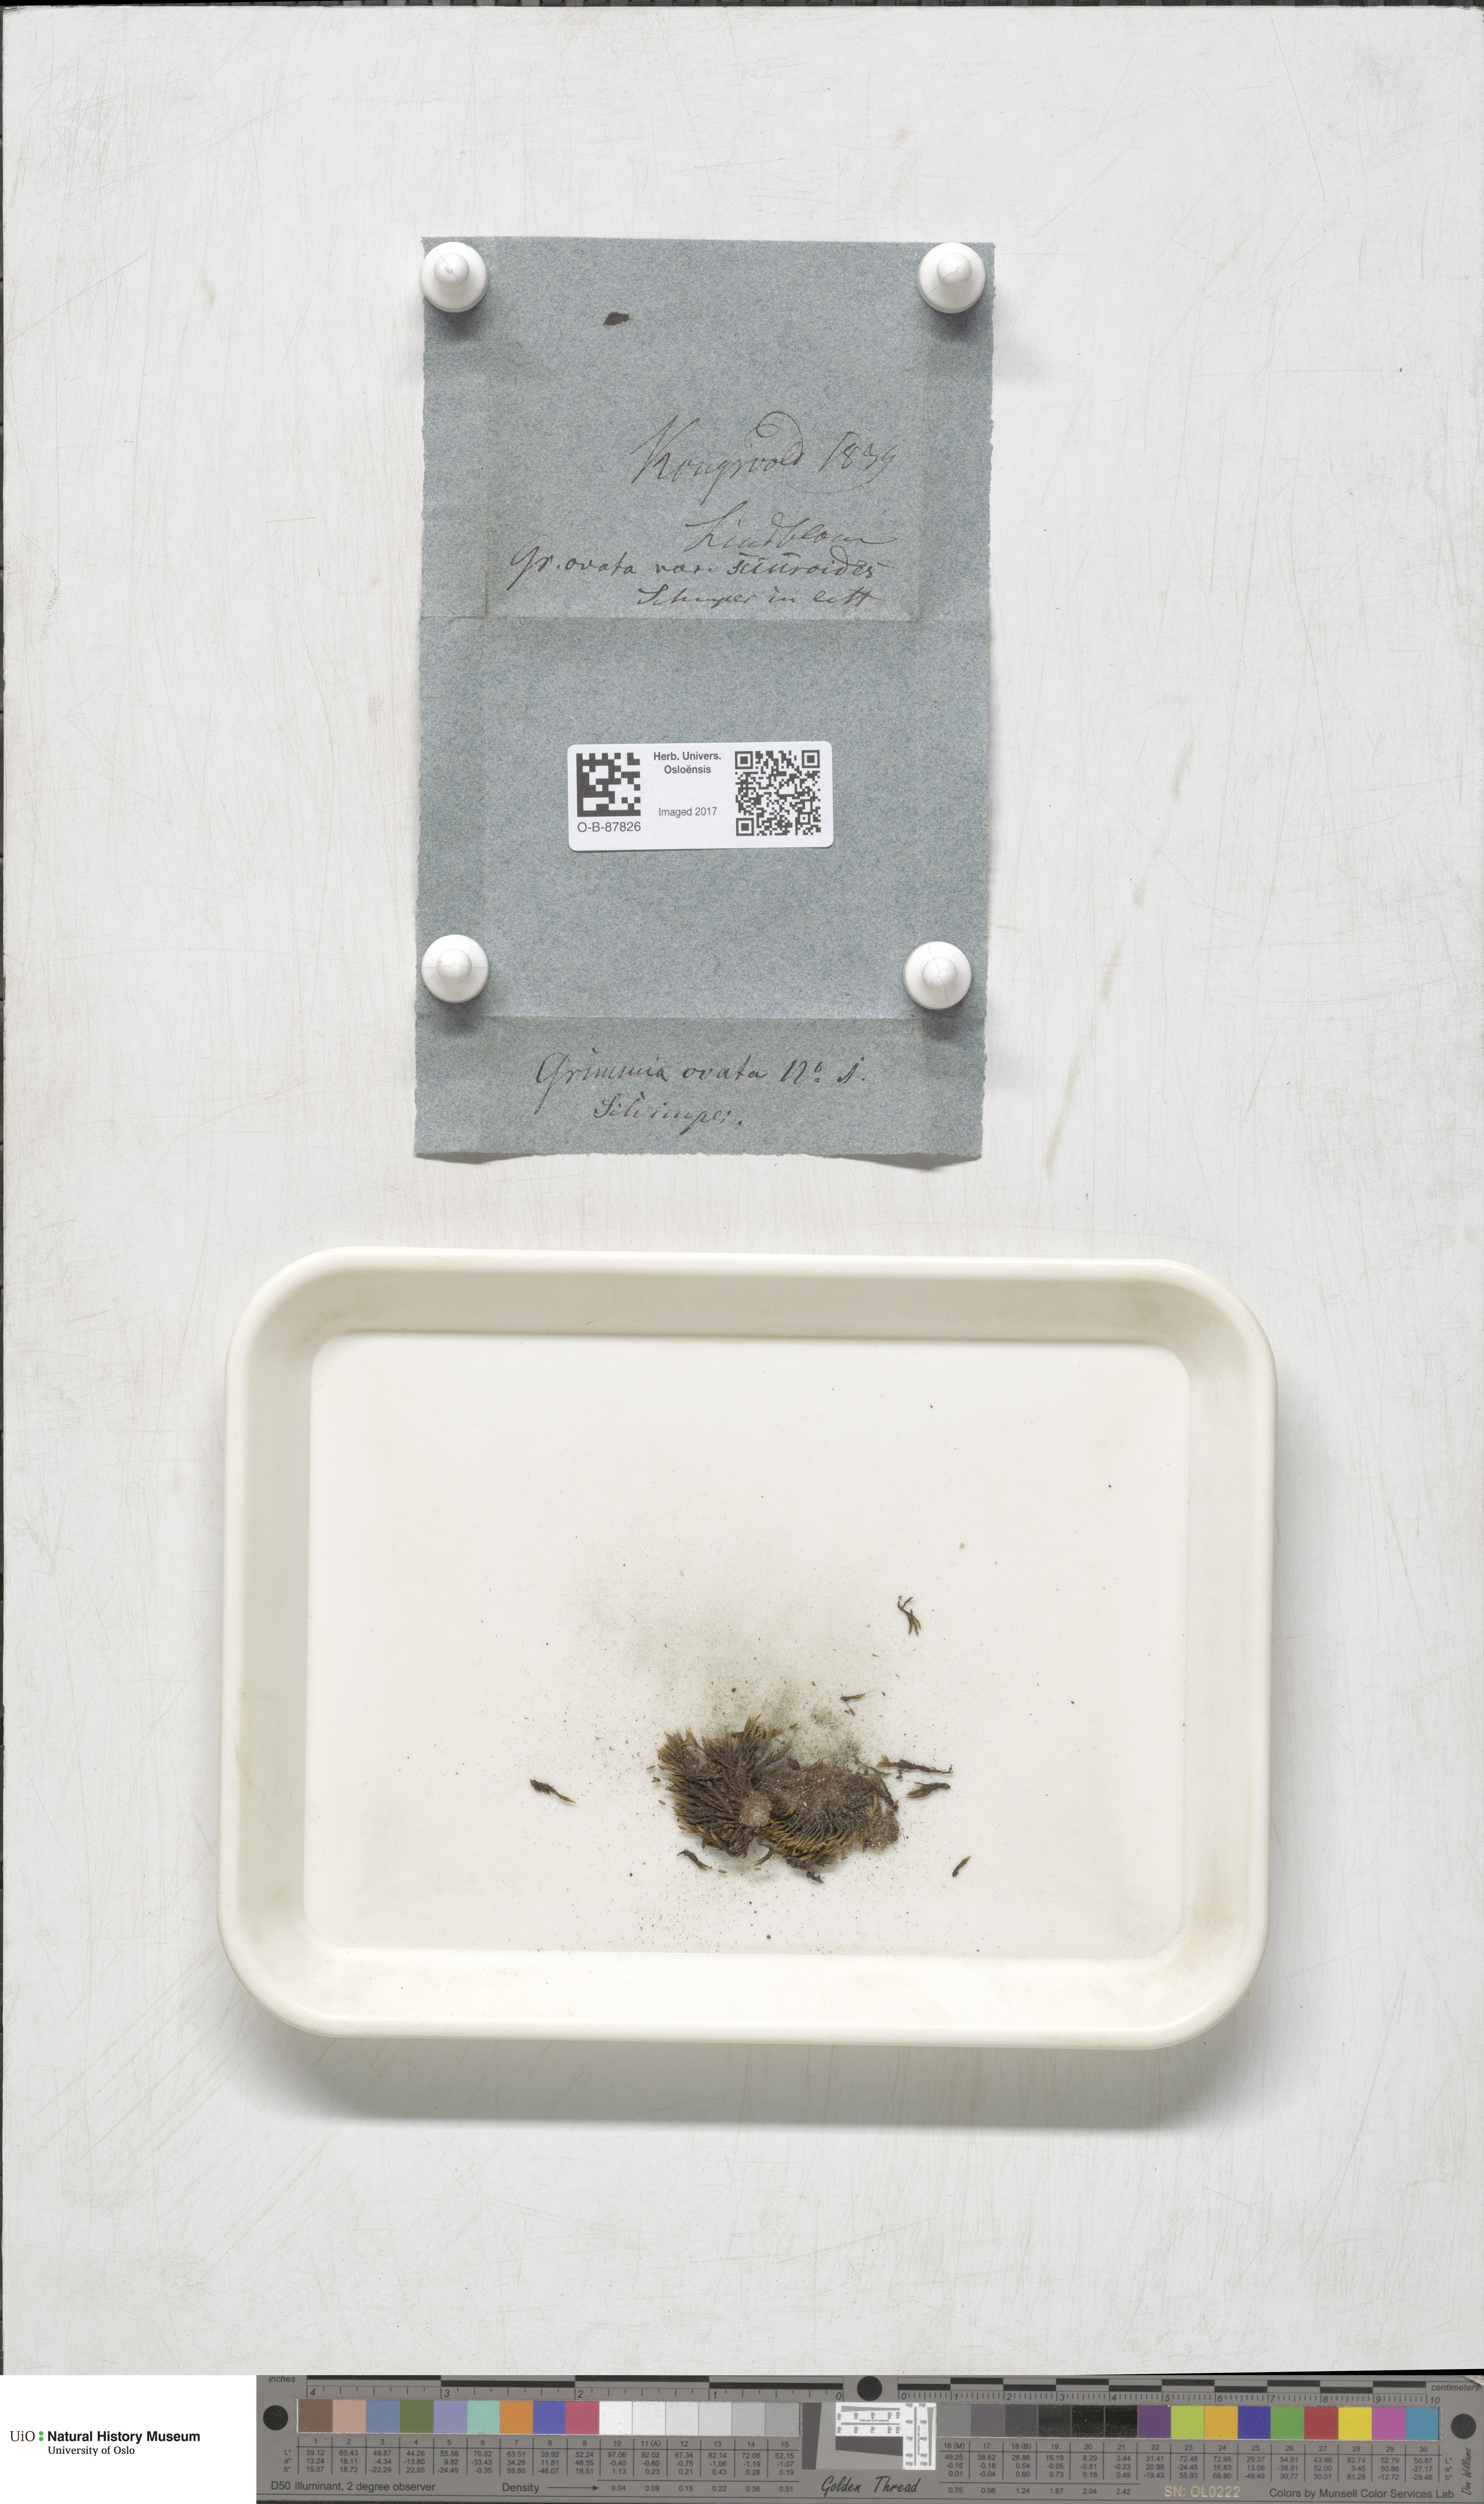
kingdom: Plantae
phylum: Bryophyta
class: Bryopsida
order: Grimmiales
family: Grimmiaceae
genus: Grimmia
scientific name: Grimmia ovalis
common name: Oval grimmia
